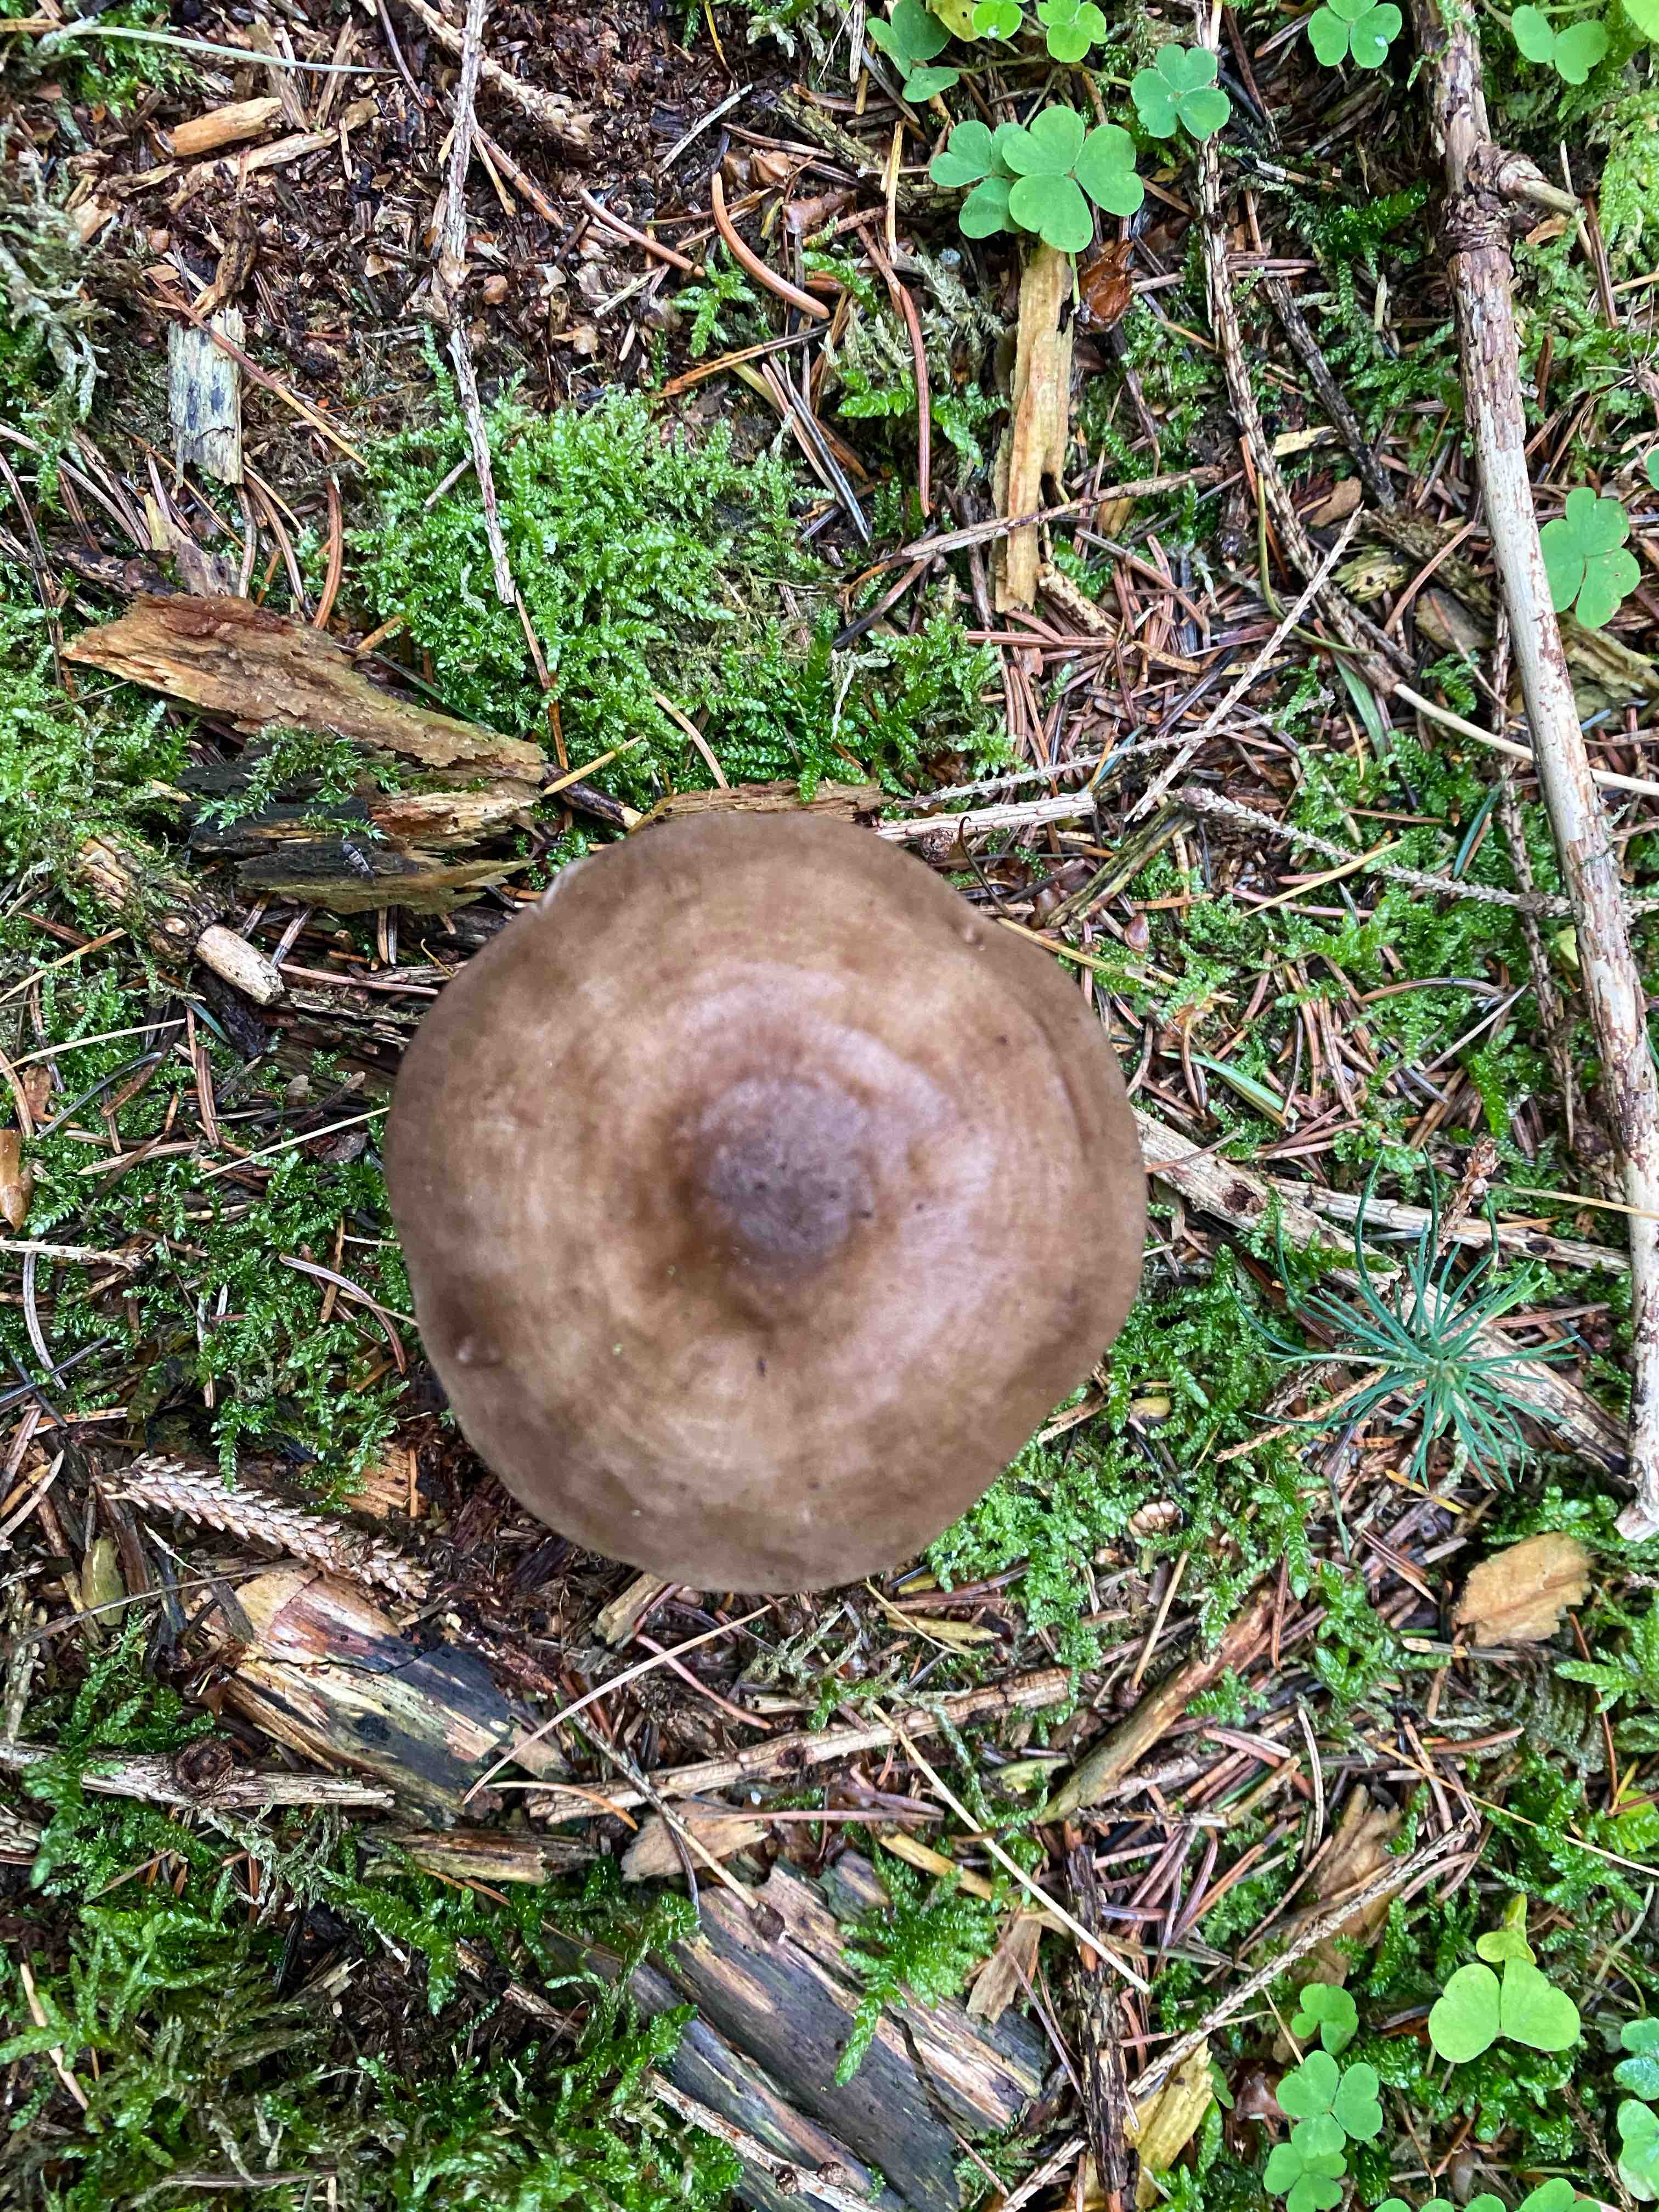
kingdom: Fungi
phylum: Basidiomycota
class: Agaricomycetes
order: Agaricales
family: Pluteaceae
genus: Pluteus
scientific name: Pluteus pouzarianus
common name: plantage-skærmhat
